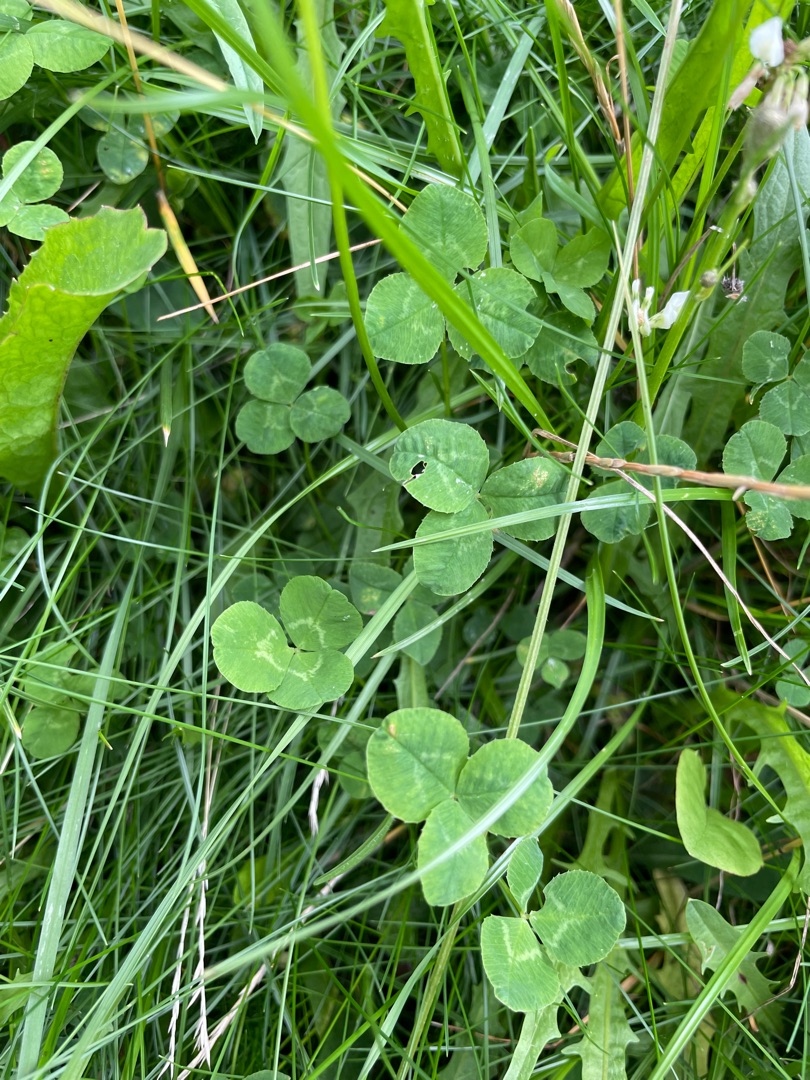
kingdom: Plantae
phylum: Tracheophyta
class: Magnoliopsida
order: Fabales
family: Fabaceae
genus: Trifolium
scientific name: Trifolium repens
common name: Hvid-kløver
